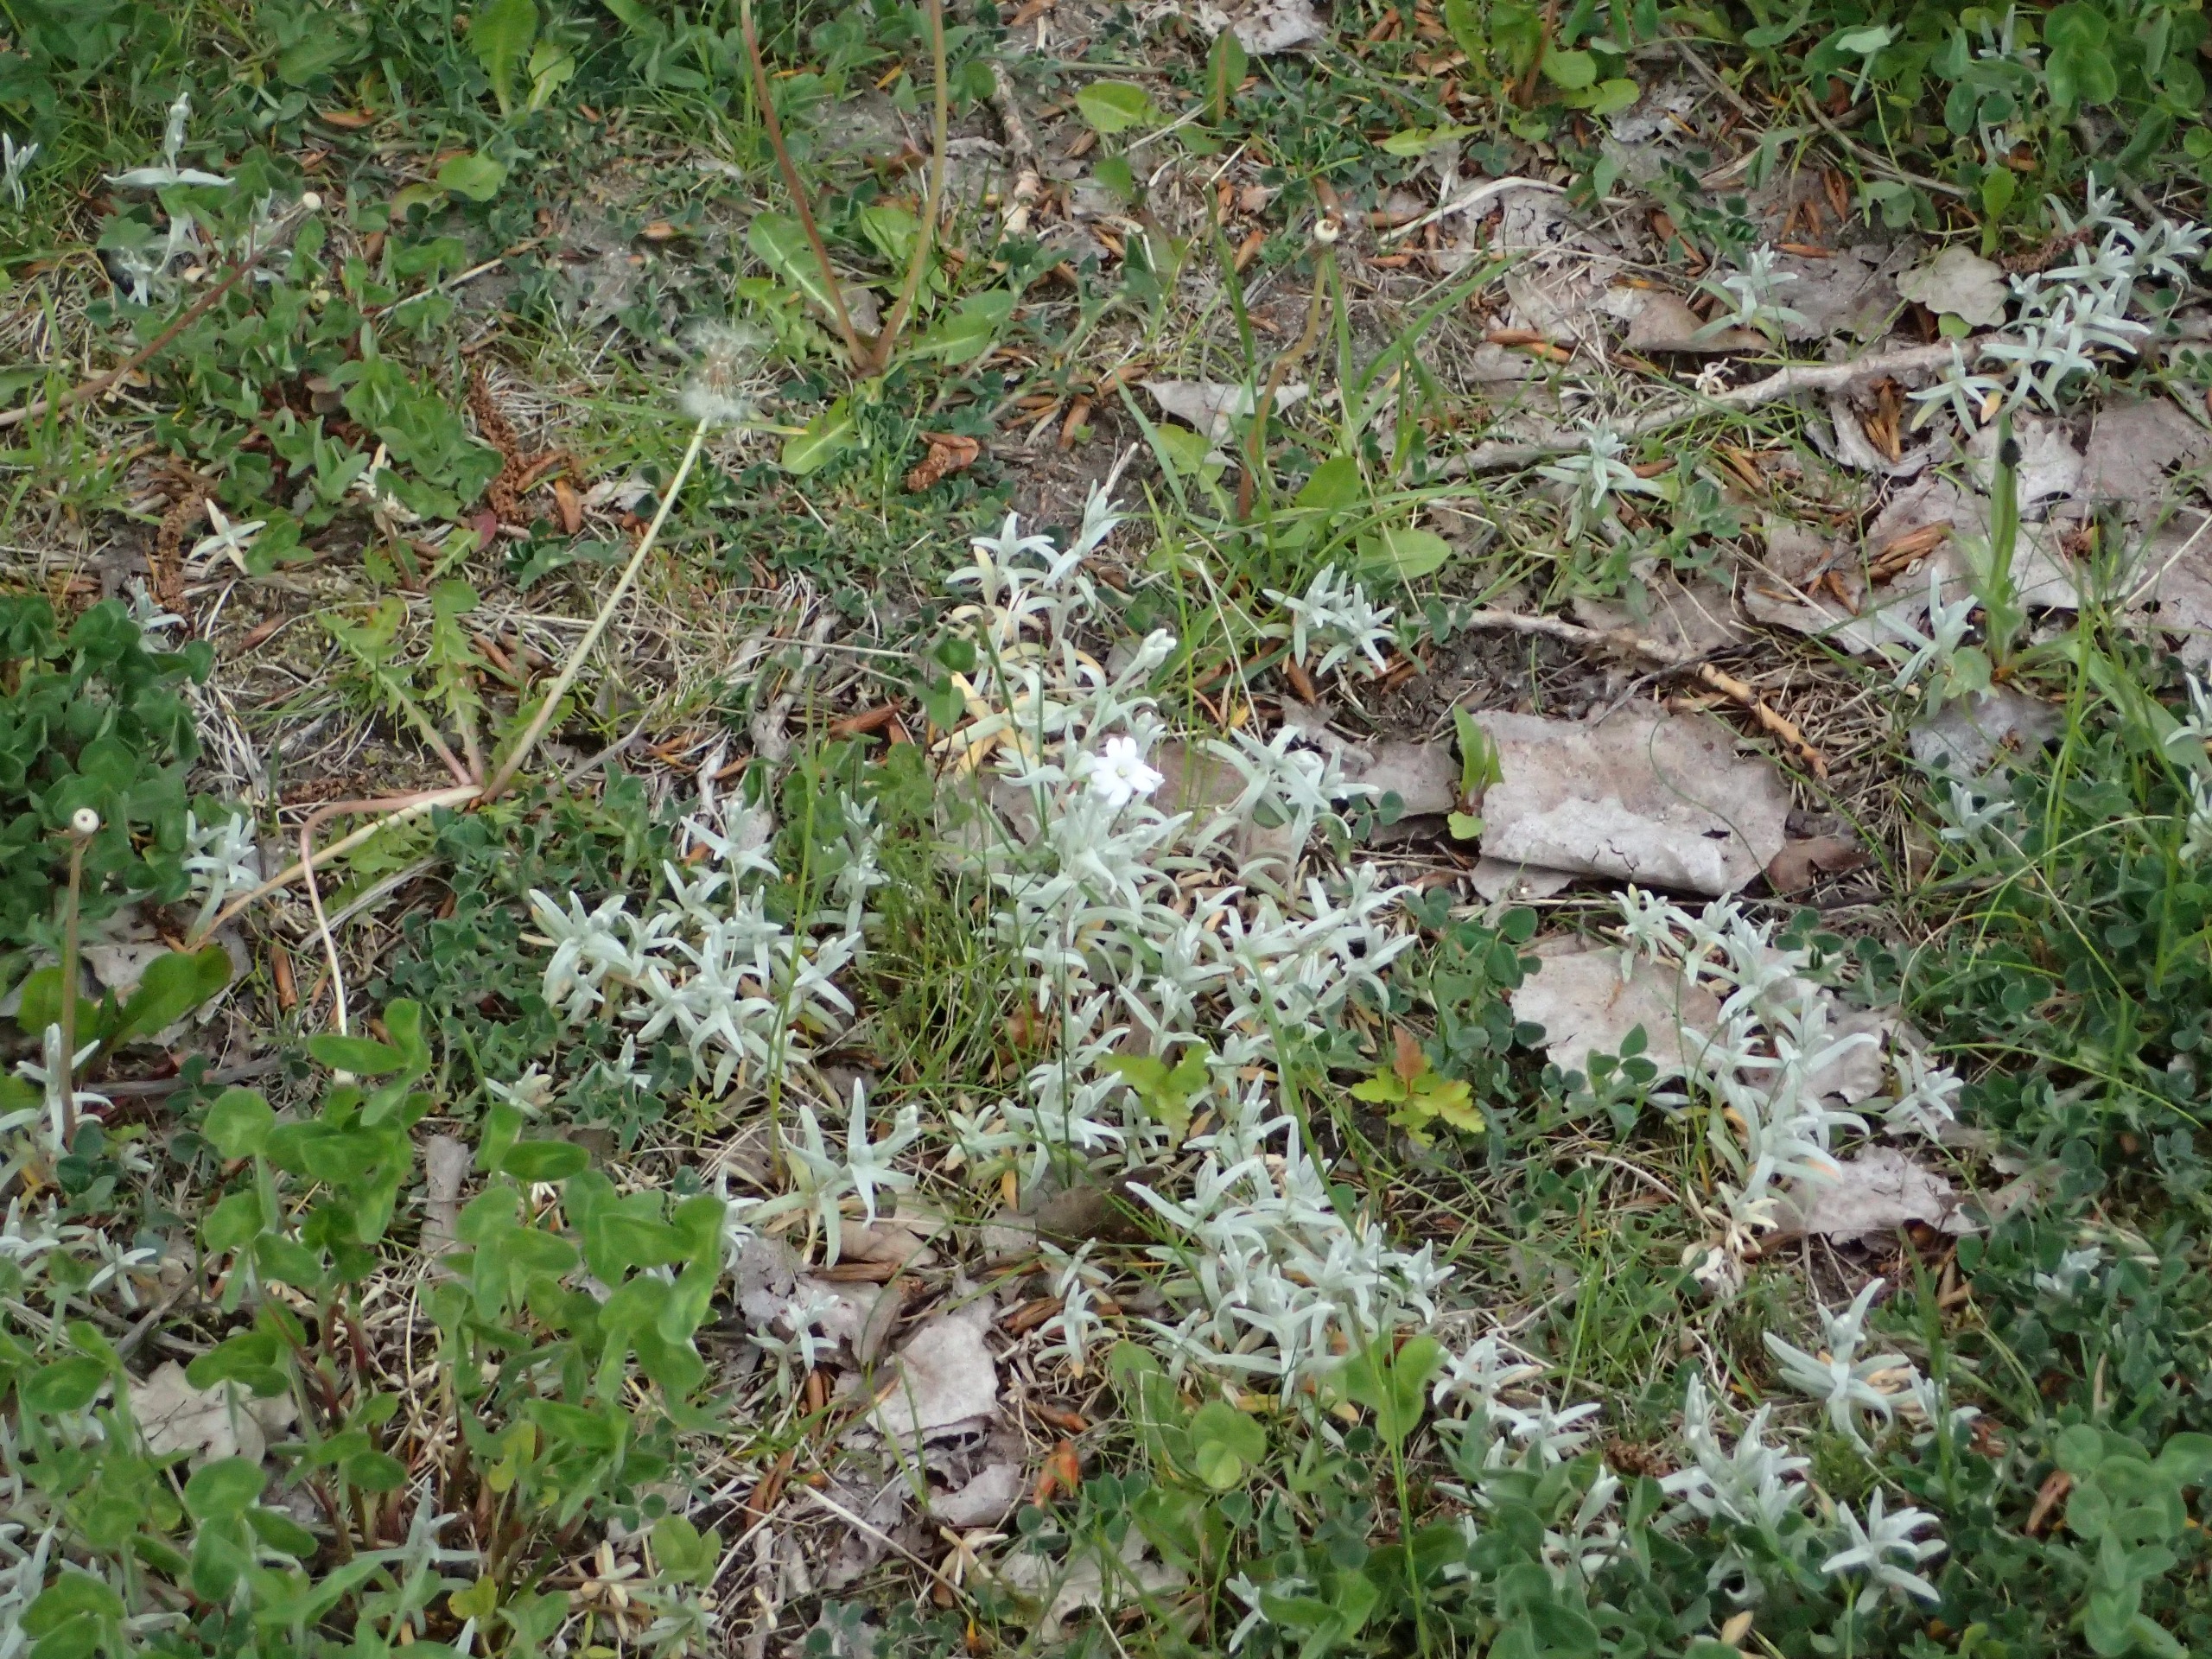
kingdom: Plantae
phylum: Tracheophyta
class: Magnoliopsida
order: Caryophyllales
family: Caryophyllaceae
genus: Cerastium
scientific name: Cerastium tomentosum
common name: Filtet hønsetarm
